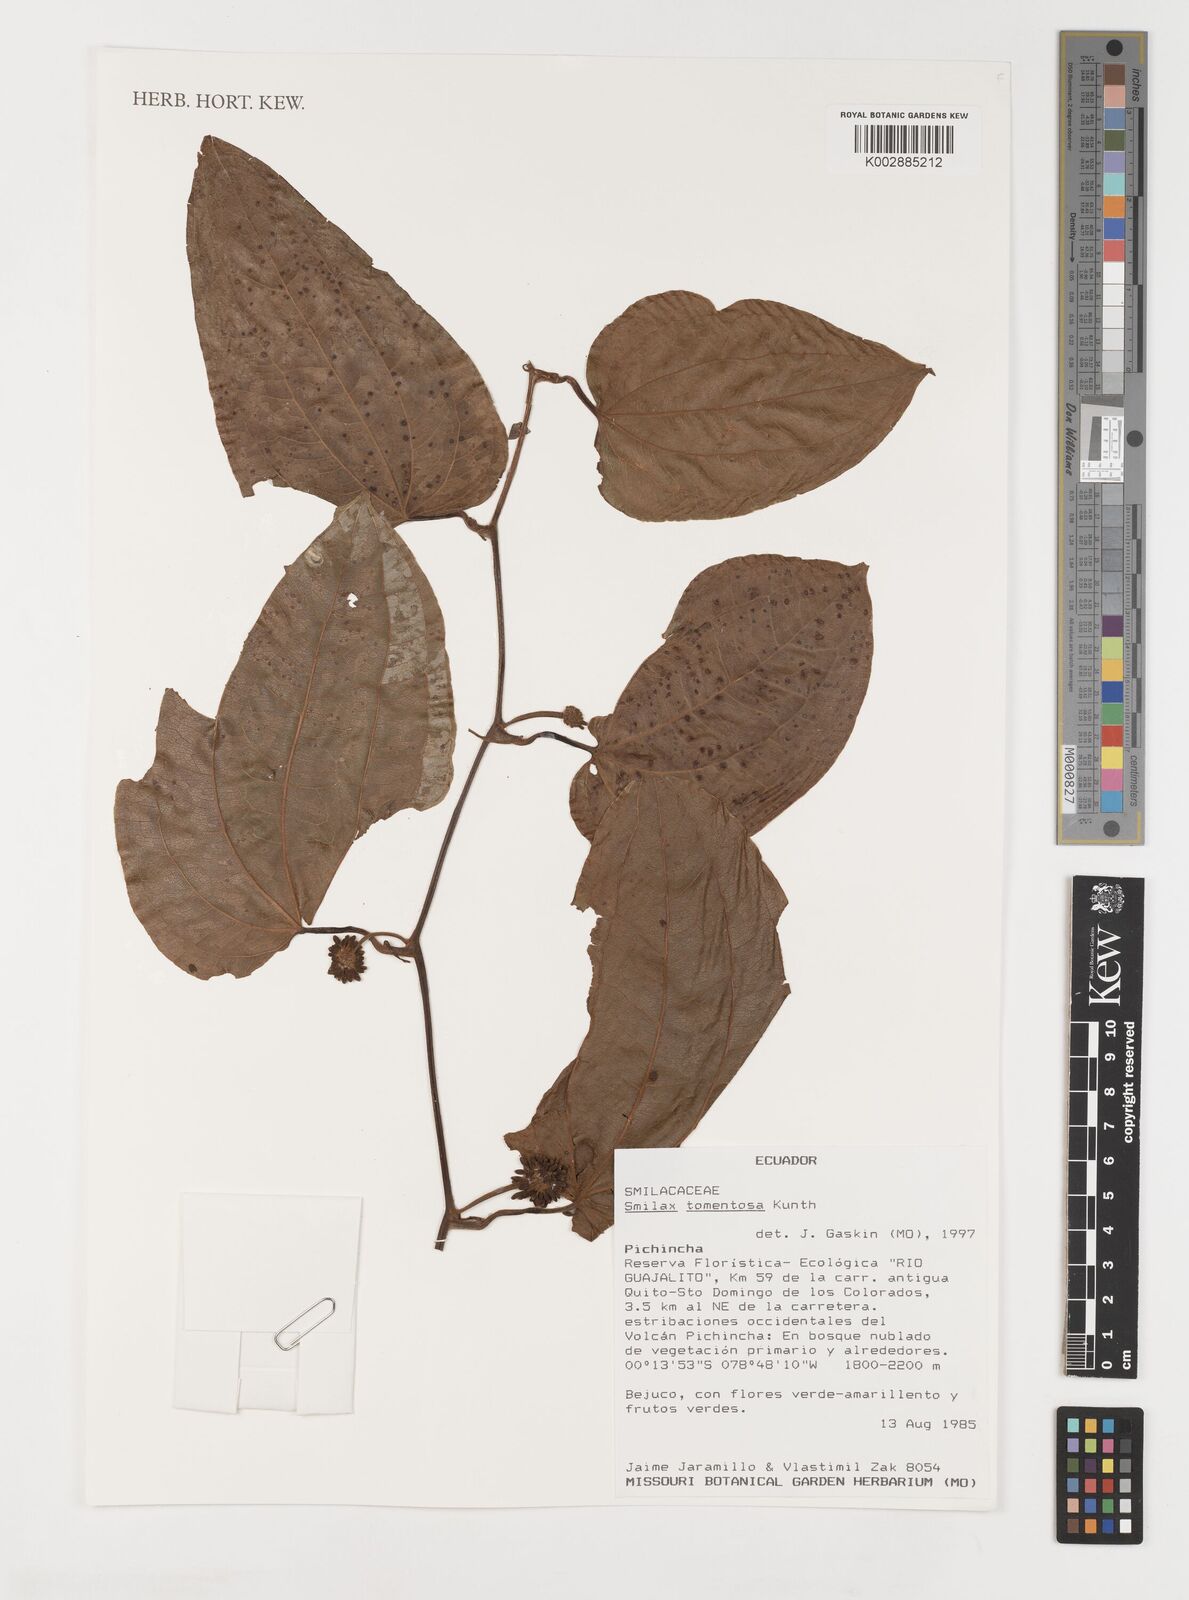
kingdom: Plantae
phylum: Tracheophyta
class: Liliopsida
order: Liliales
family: Smilacaceae
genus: Smilax
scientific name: Smilax tomentosa
